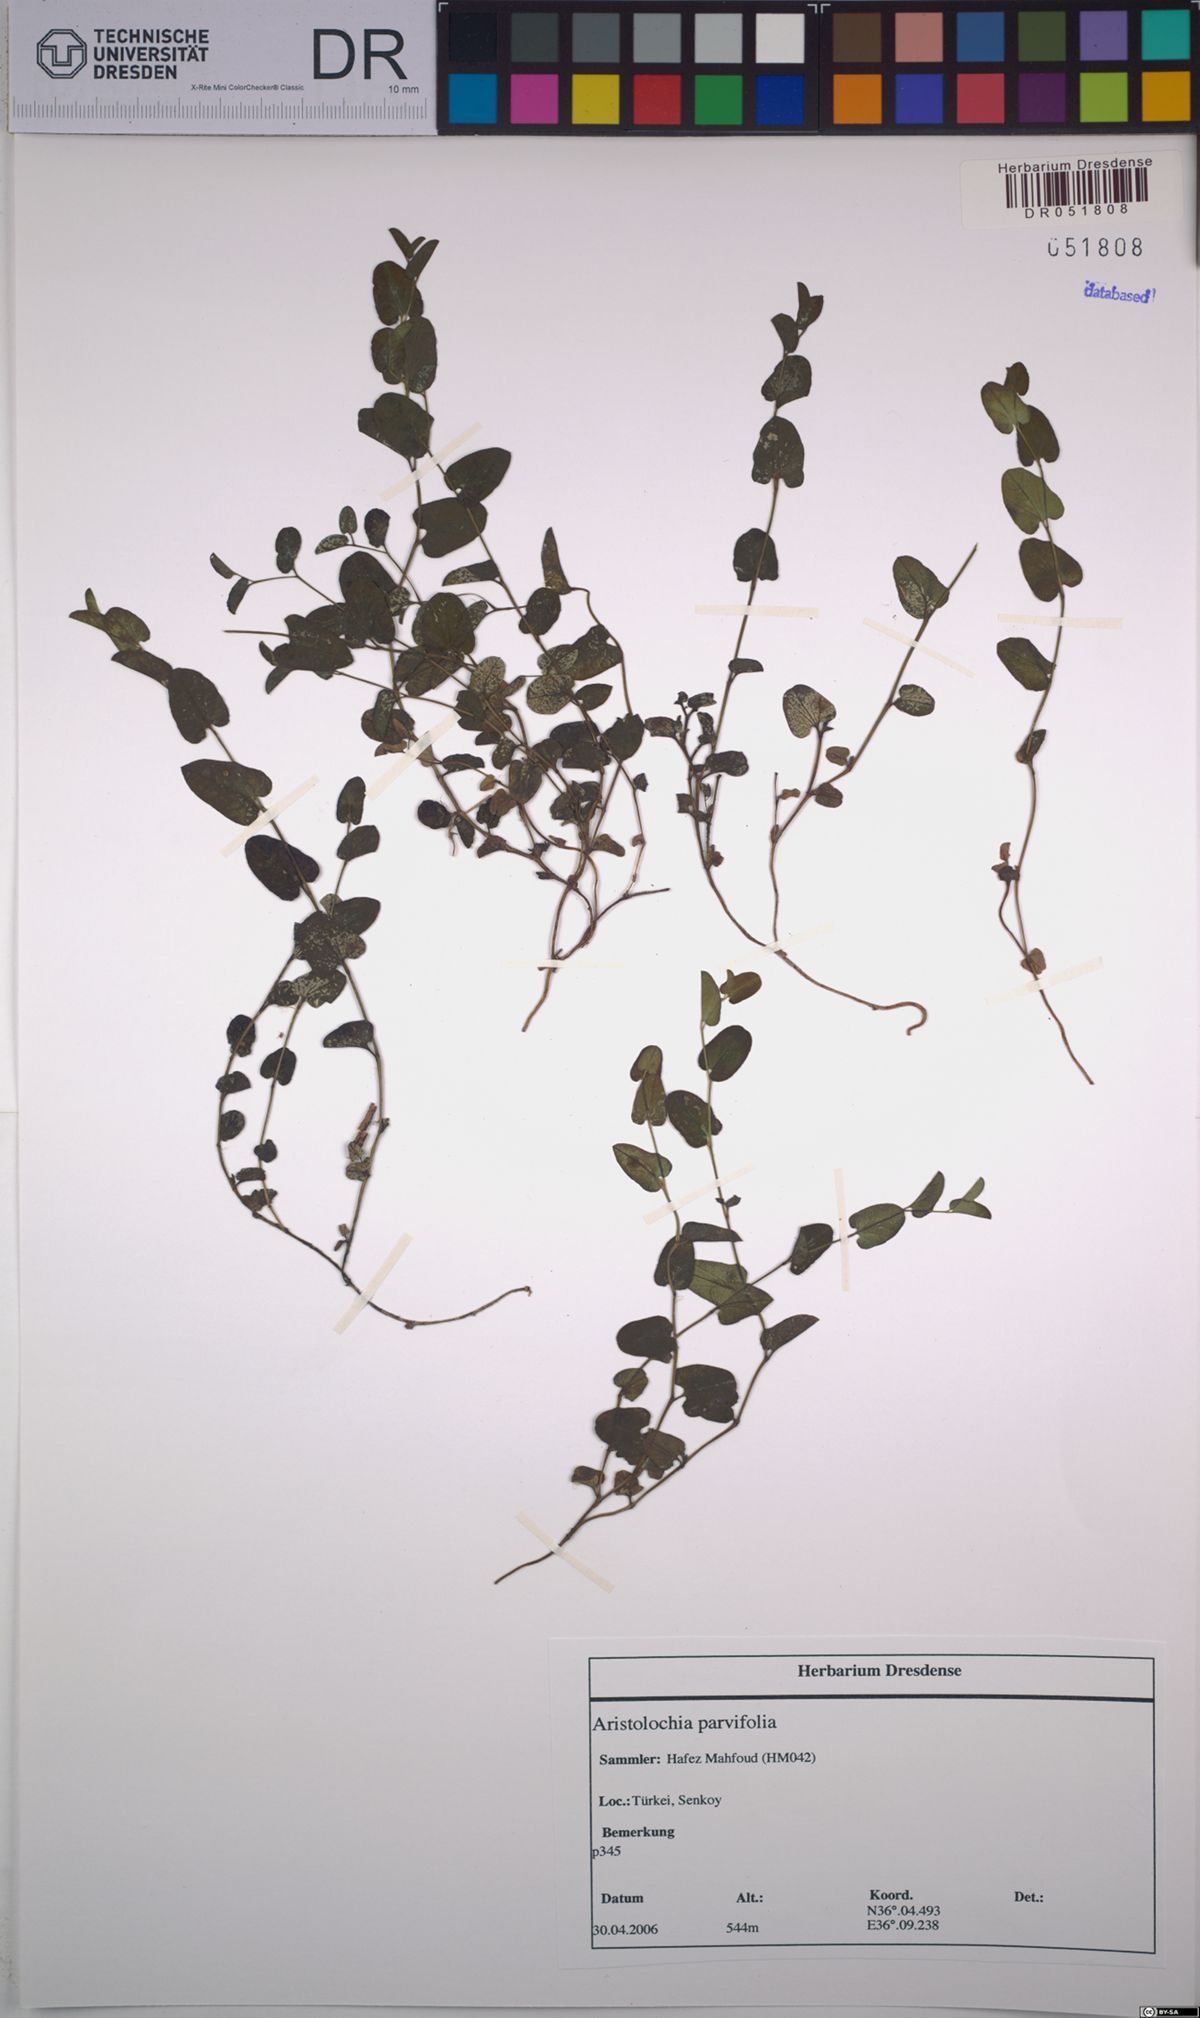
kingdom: Plantae
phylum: Tracheophyta
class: Magnoliopsida
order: Piperales
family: Aristolochiaceae
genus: Aristolochia
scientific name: Aristolochia parvifolia
